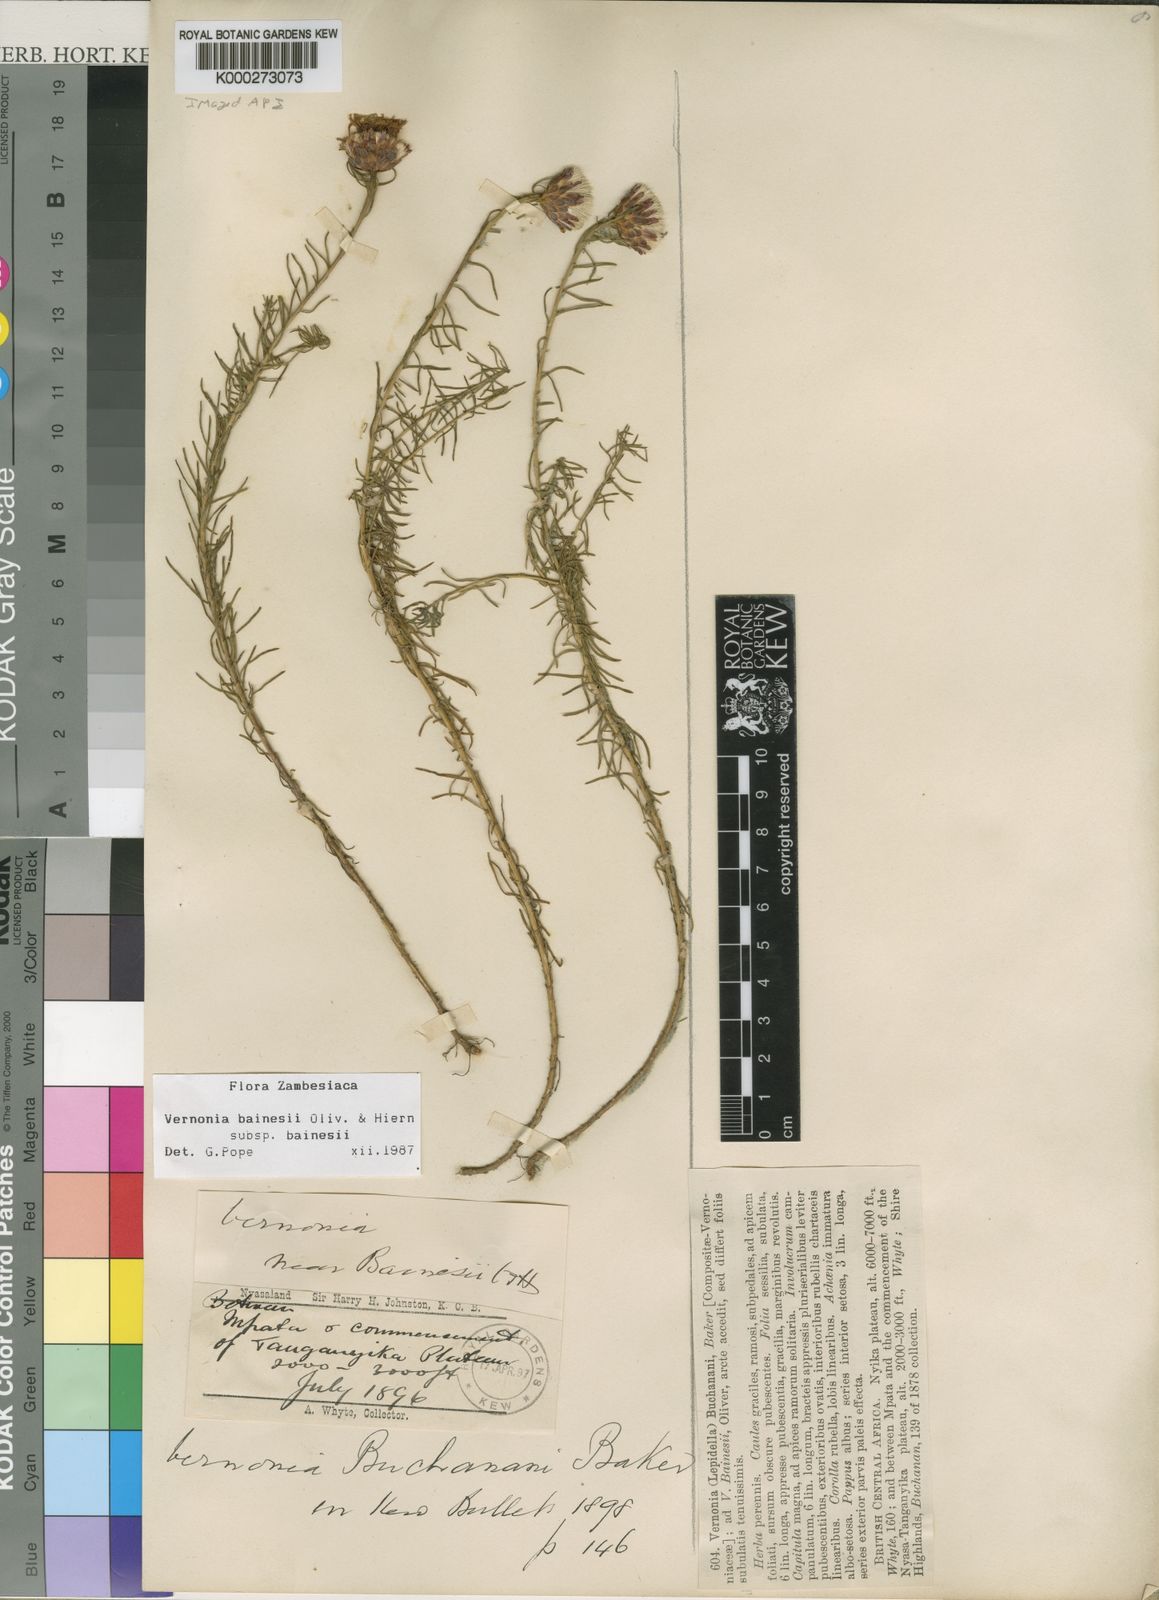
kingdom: Plantae
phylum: Tracheophyta
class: Magnoliopsida
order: Asterales
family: Asteraceae
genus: Crystallopollen
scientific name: Crystallopollen bainesii
